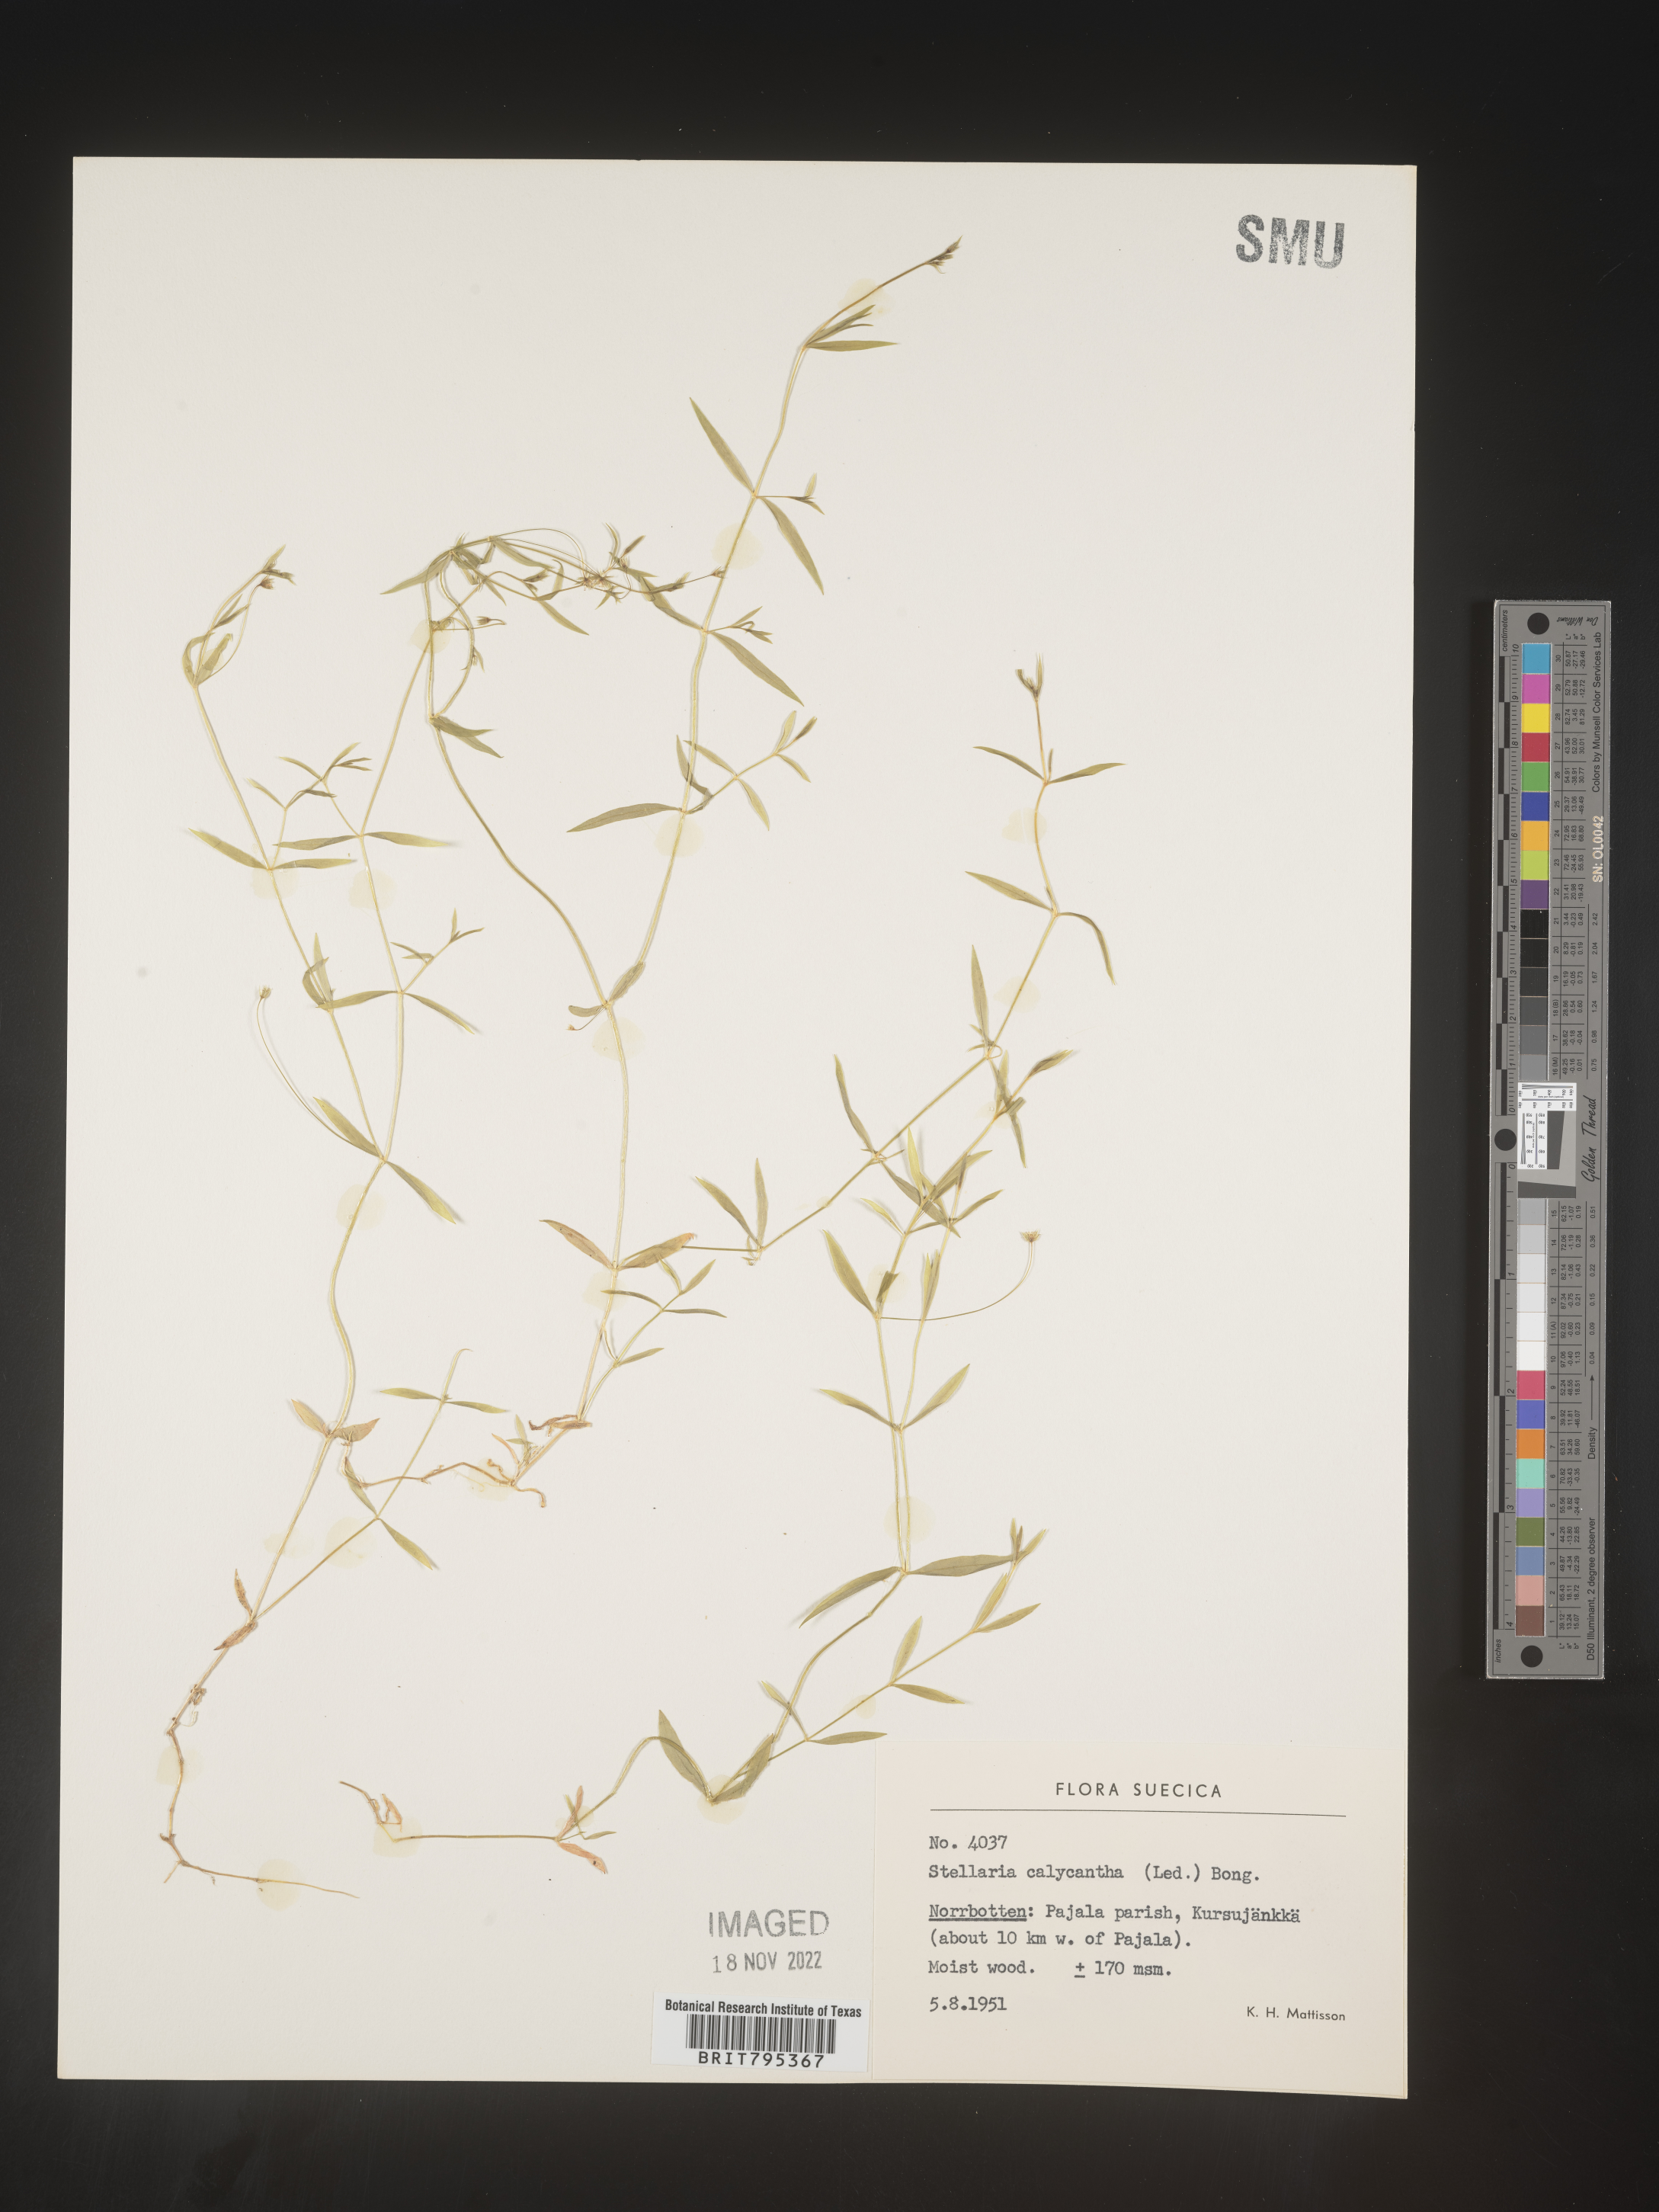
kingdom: Plantae
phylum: Tracheophyta
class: Magnoliopsida
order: Caryophyllales
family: Caryophyllaceae
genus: Stellaria
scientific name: Stellaria
